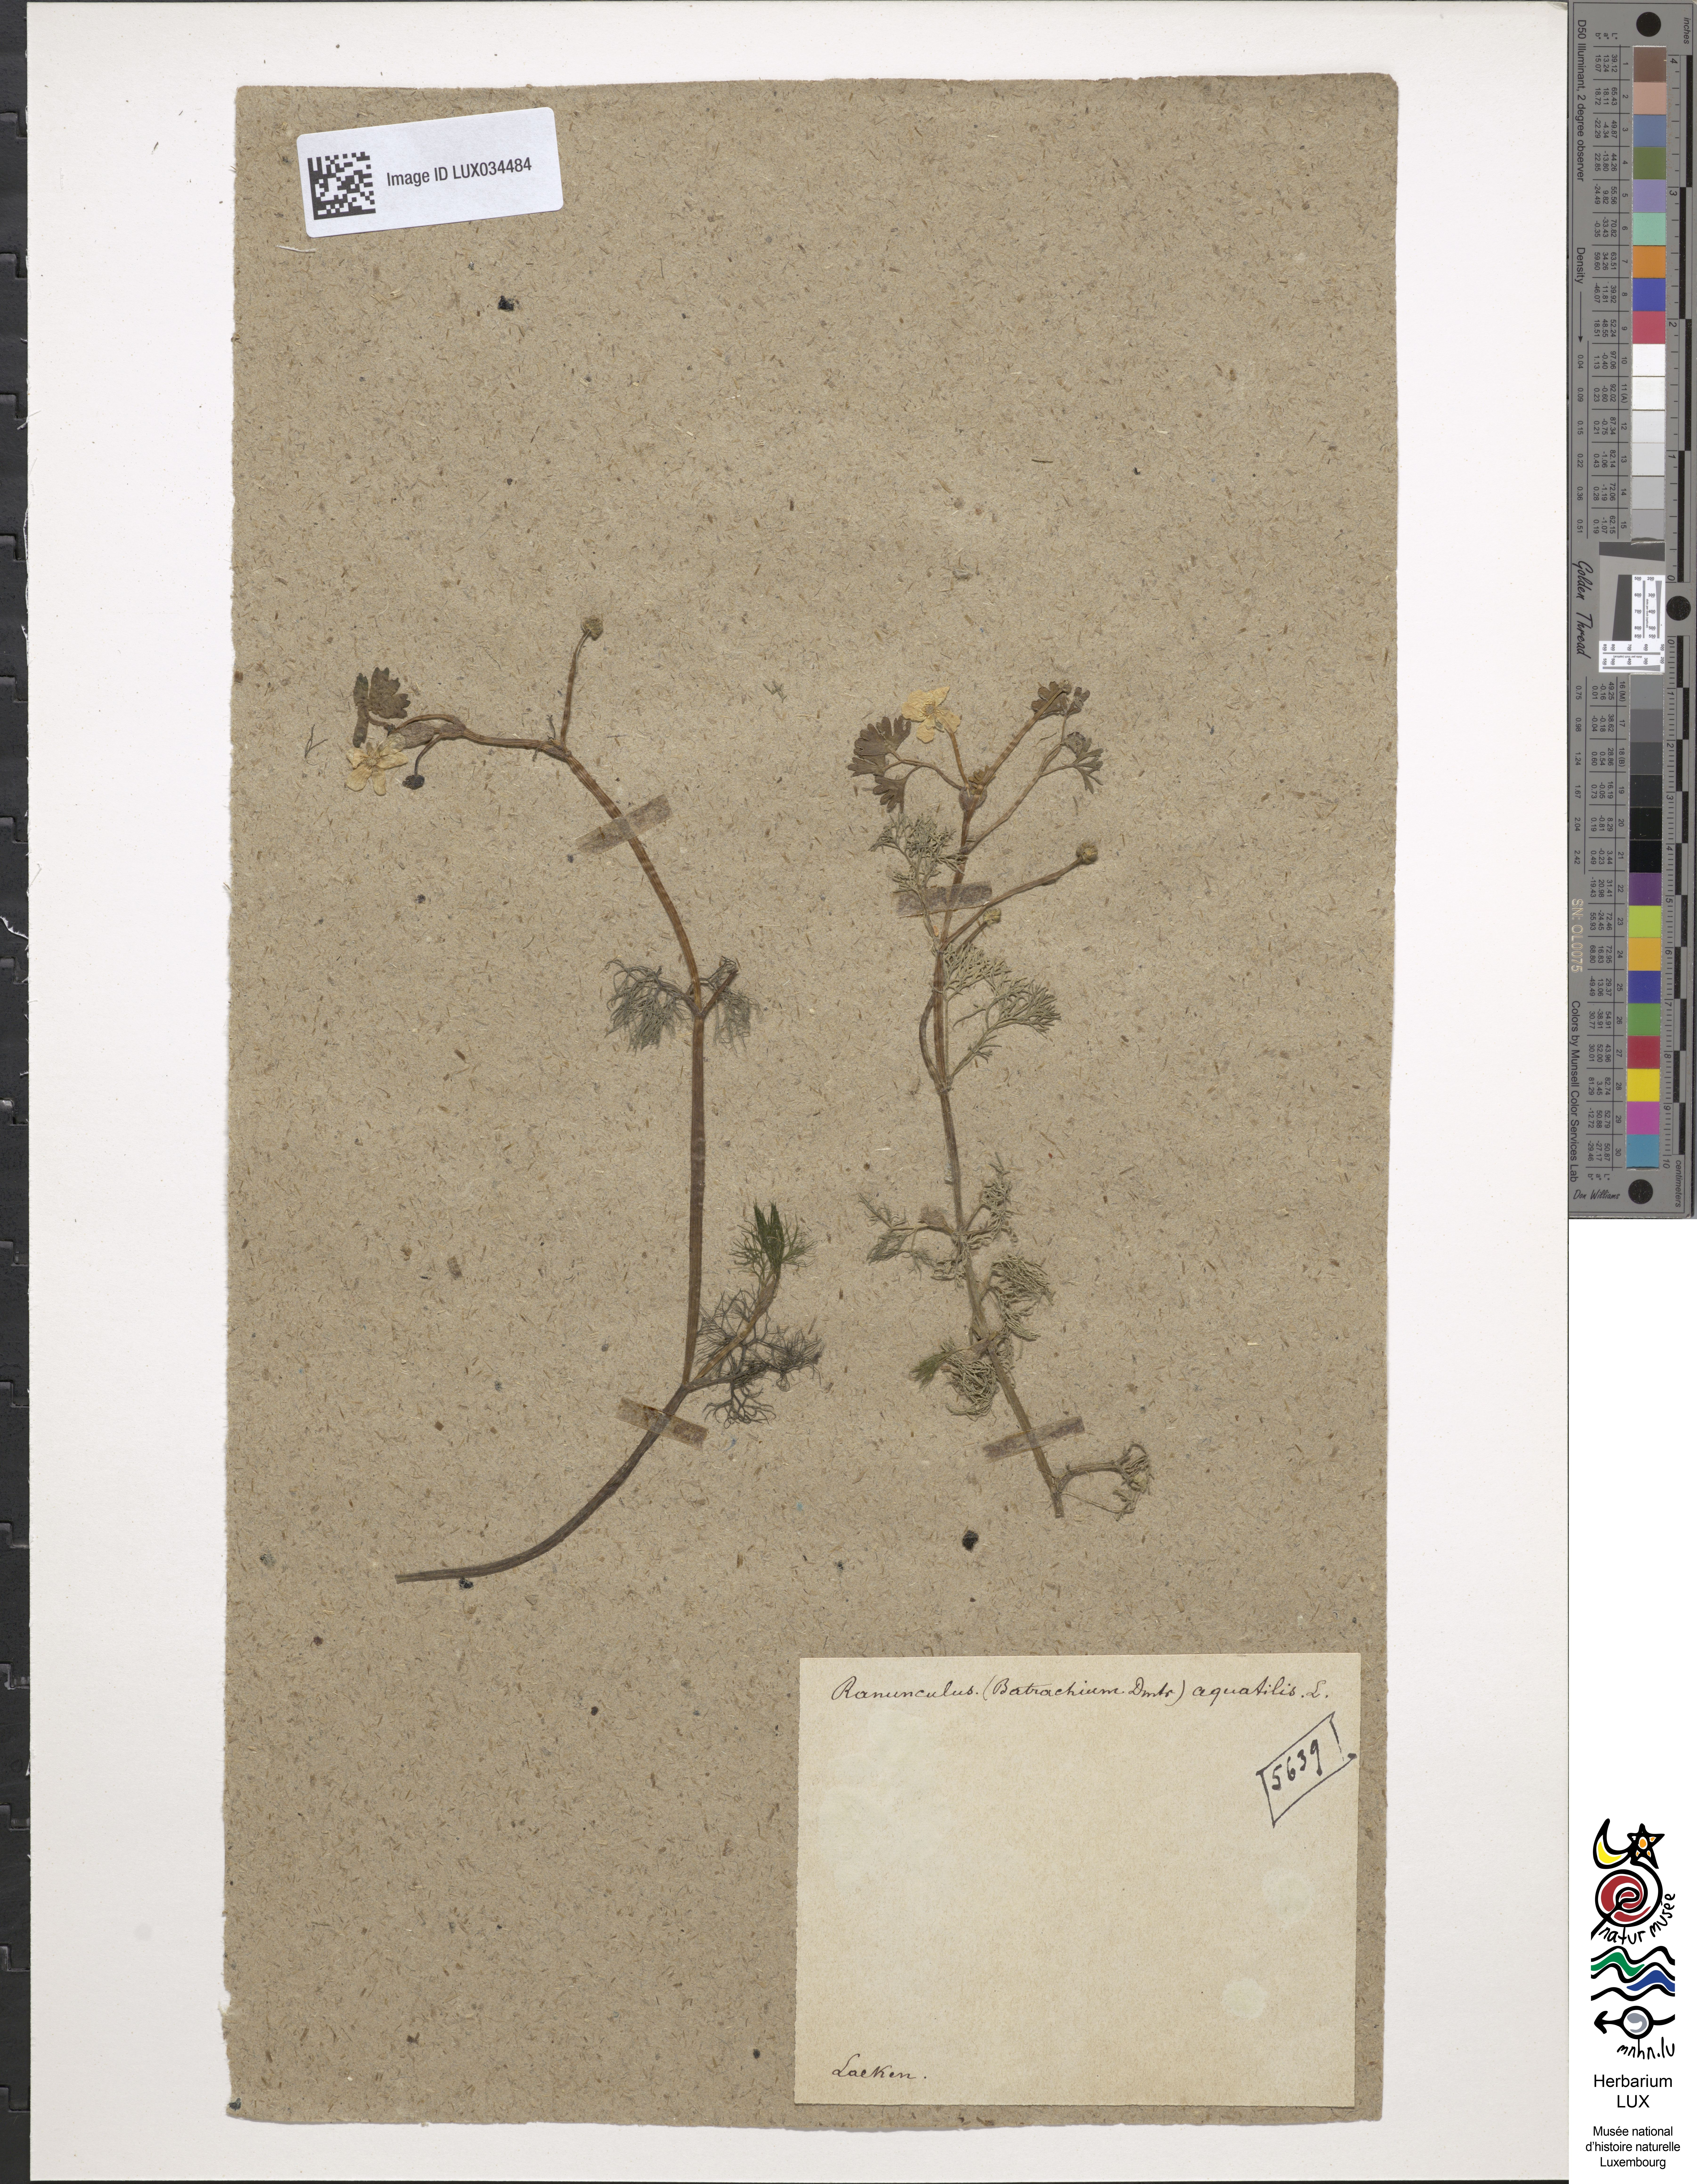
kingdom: Plantae
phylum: Tracheophyta
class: Magnoliopsida
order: Ranunculales
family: Ranunculaceae
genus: Ranunculus
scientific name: Ranunculus aquatilis
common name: Common water-crowfoot
